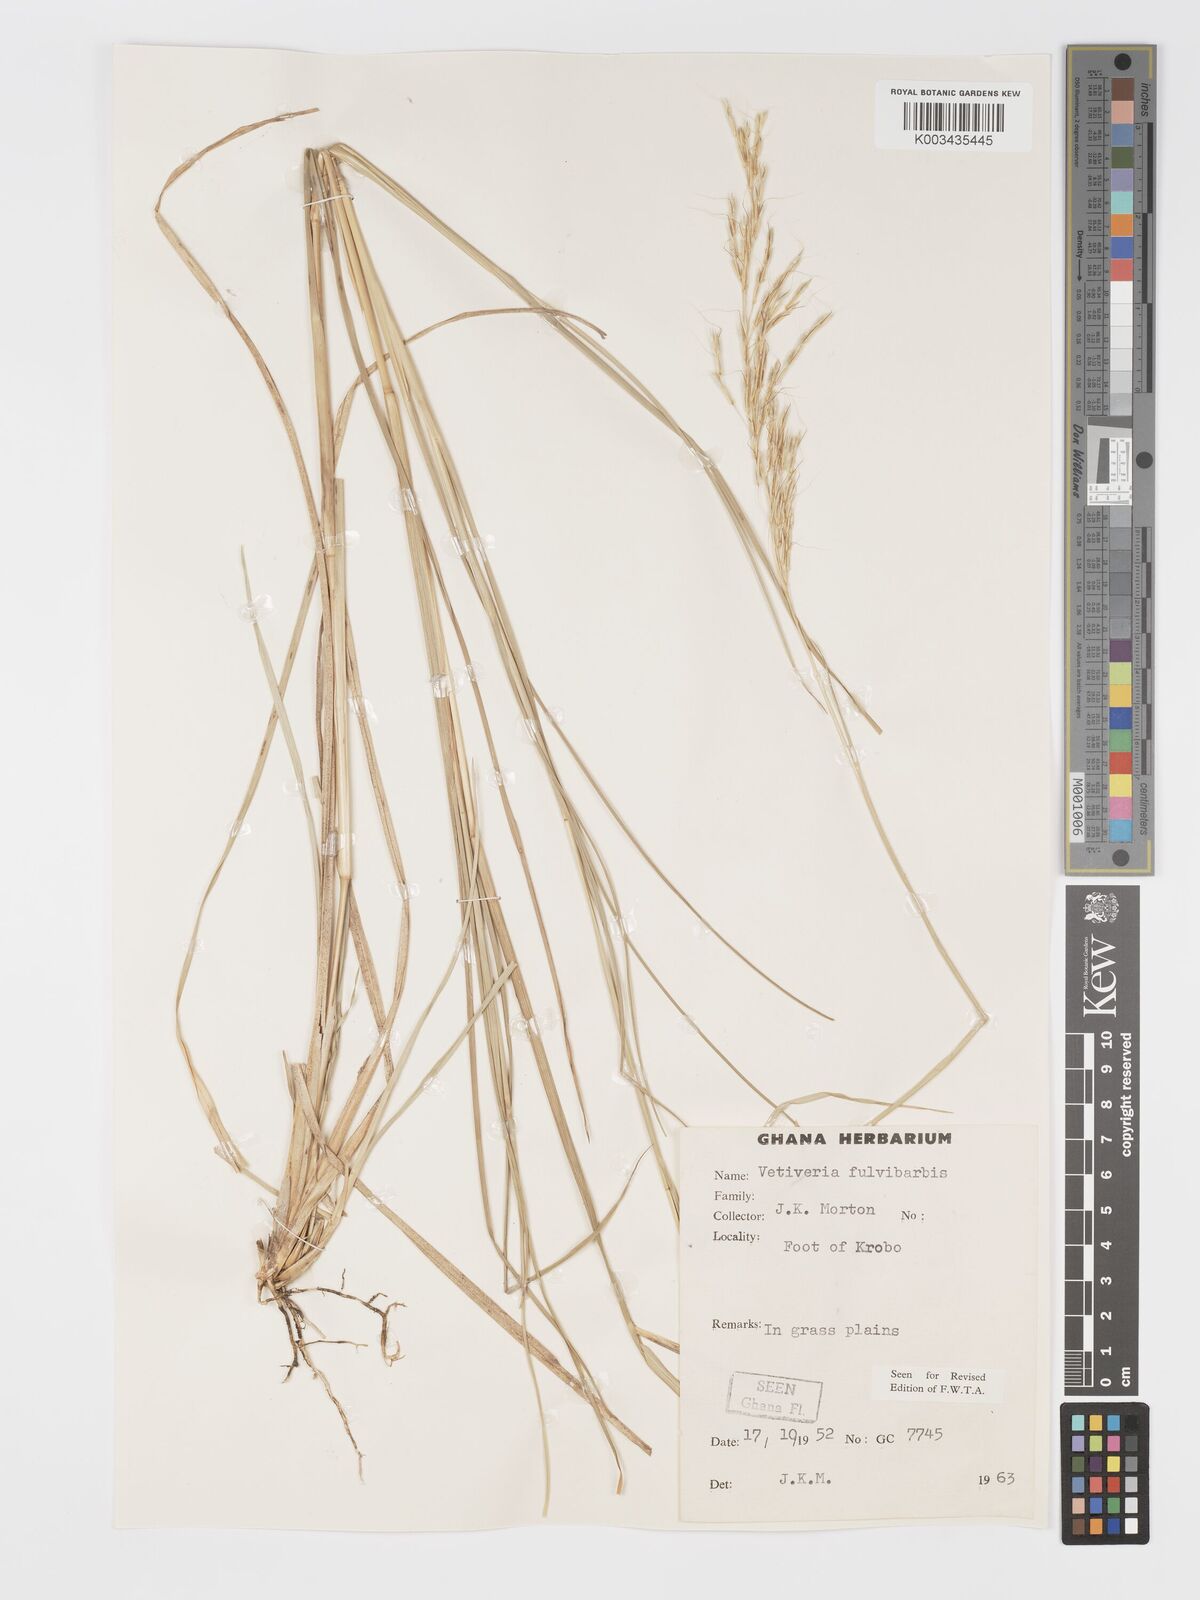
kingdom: Plantae
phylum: Tracheophyta
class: Liliopsida
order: Poales
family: Poaceae
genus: Chrysopogon
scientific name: Chrysopogon fulvibarbis
